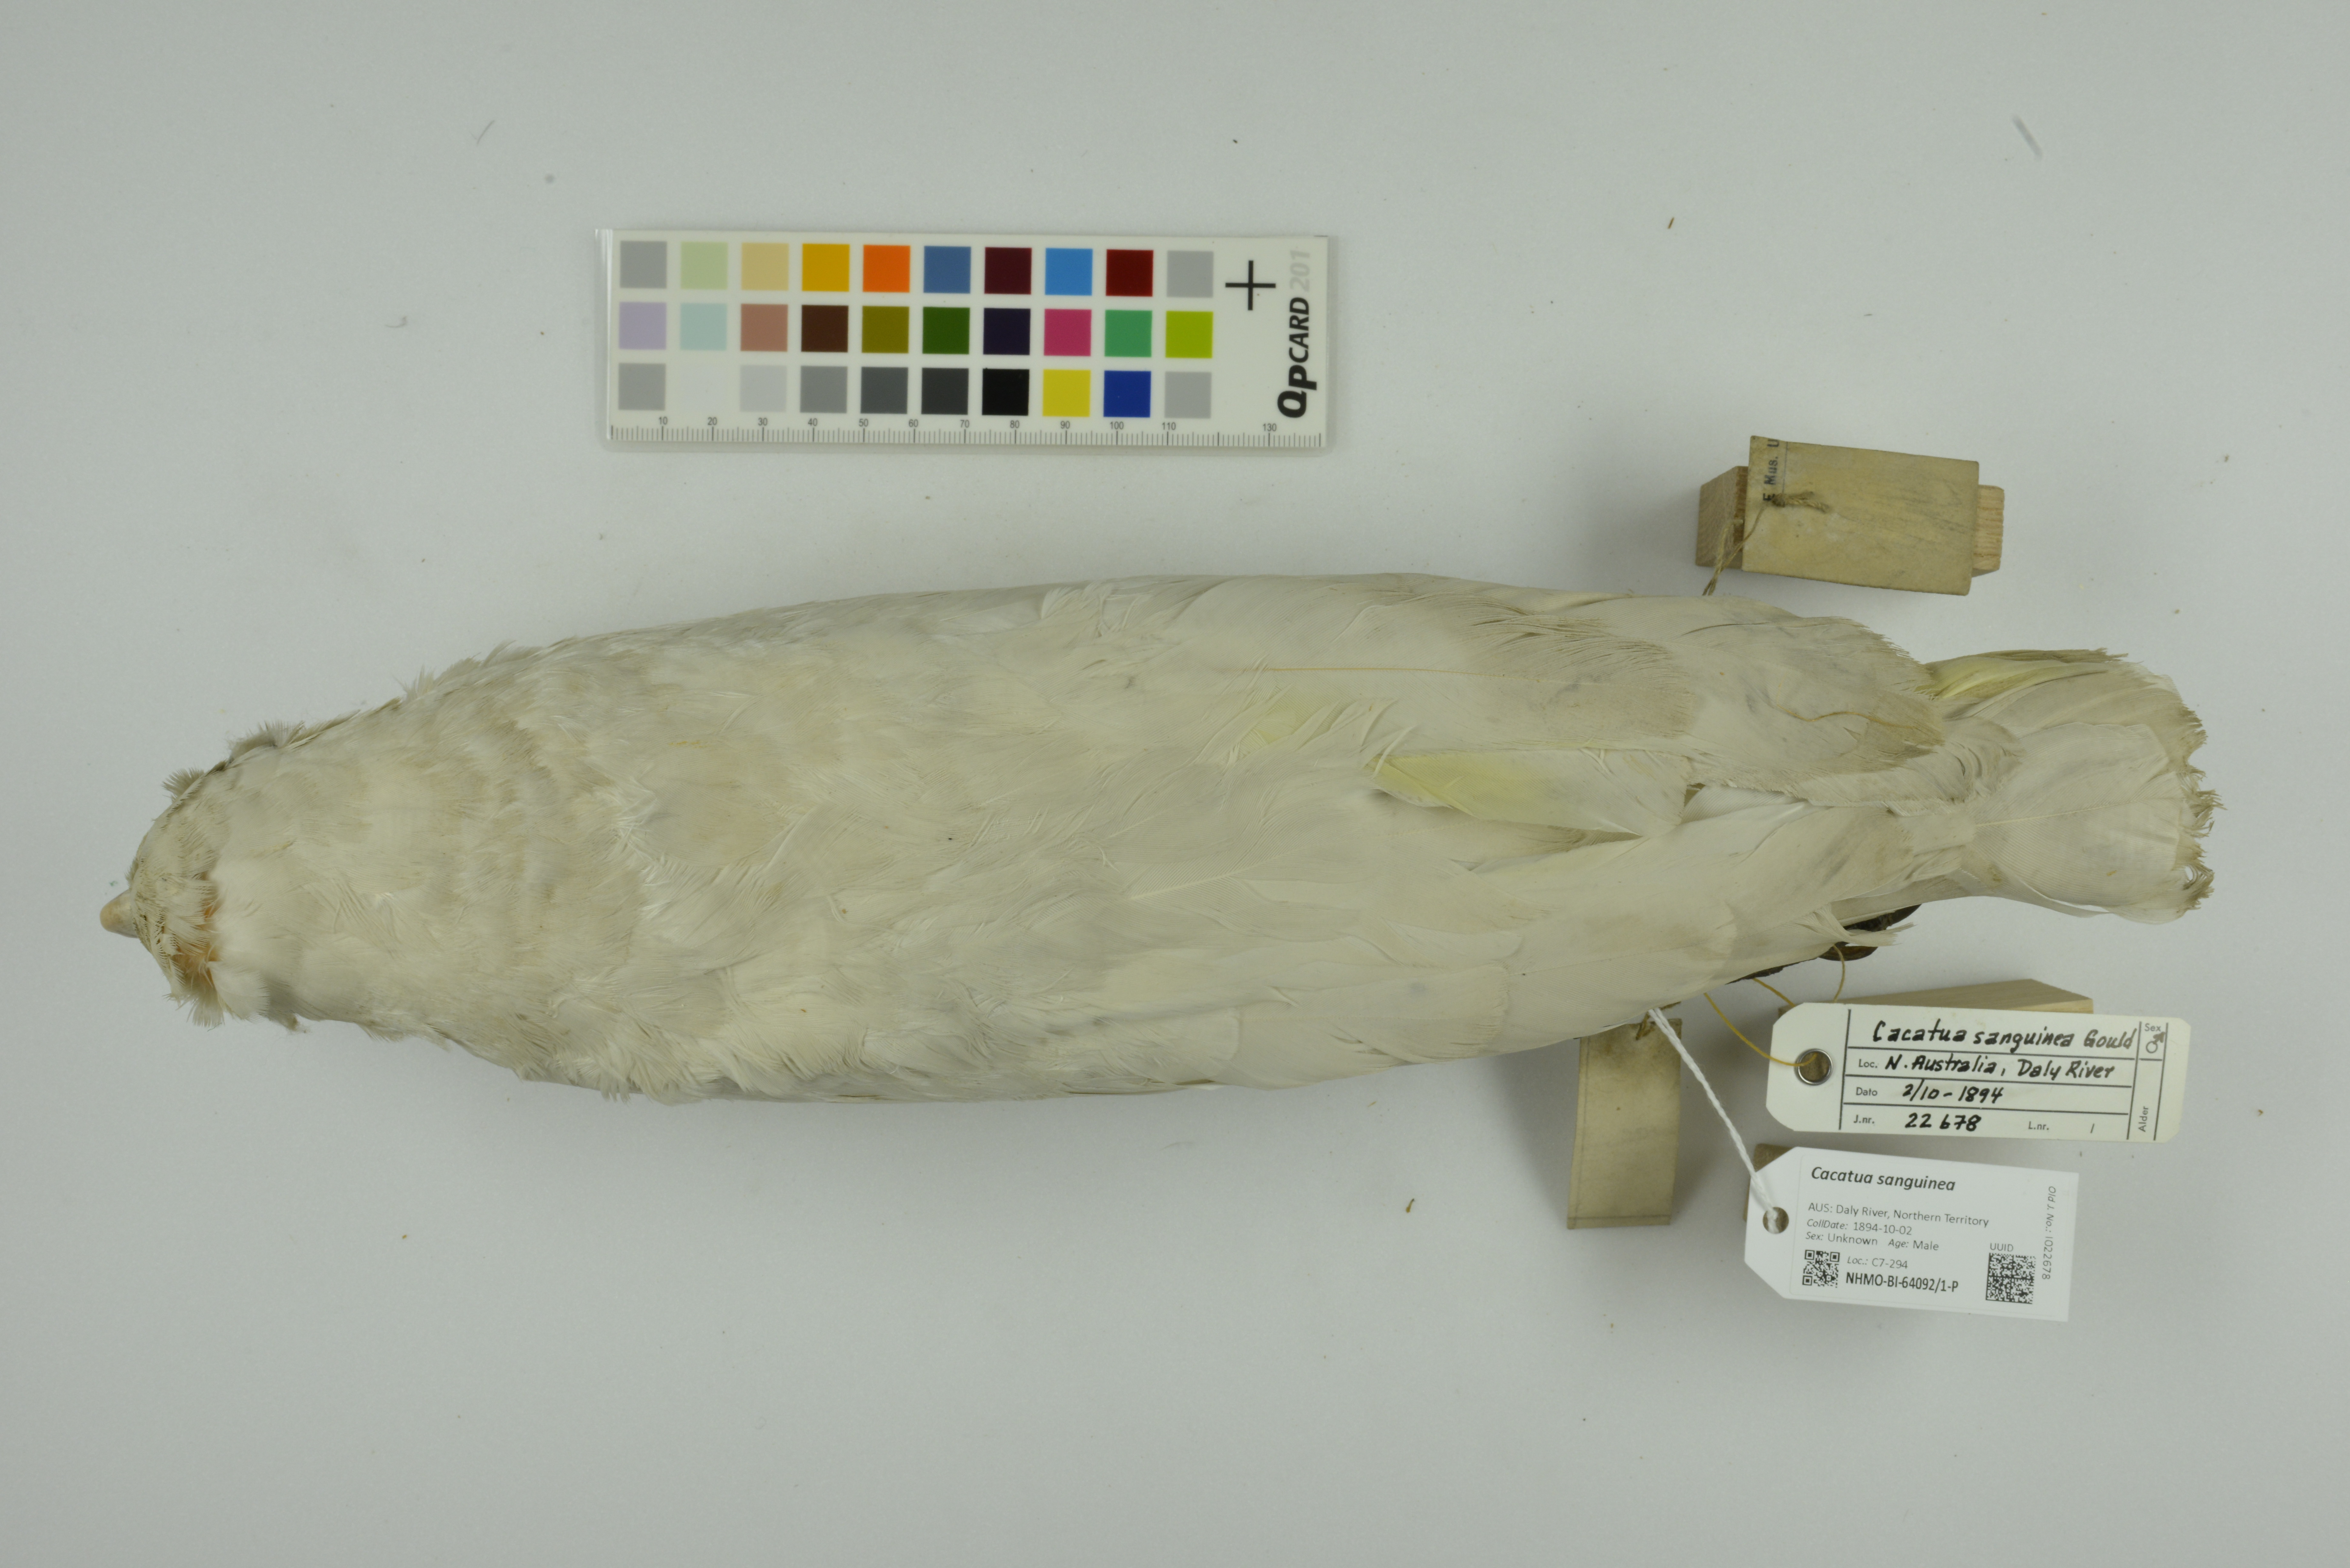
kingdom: Animalia
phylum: Chordata
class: Aves
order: Psittaciformes
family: Psittacidae
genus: Cacatua
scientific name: Cacatua sanguinea
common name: Little corella
